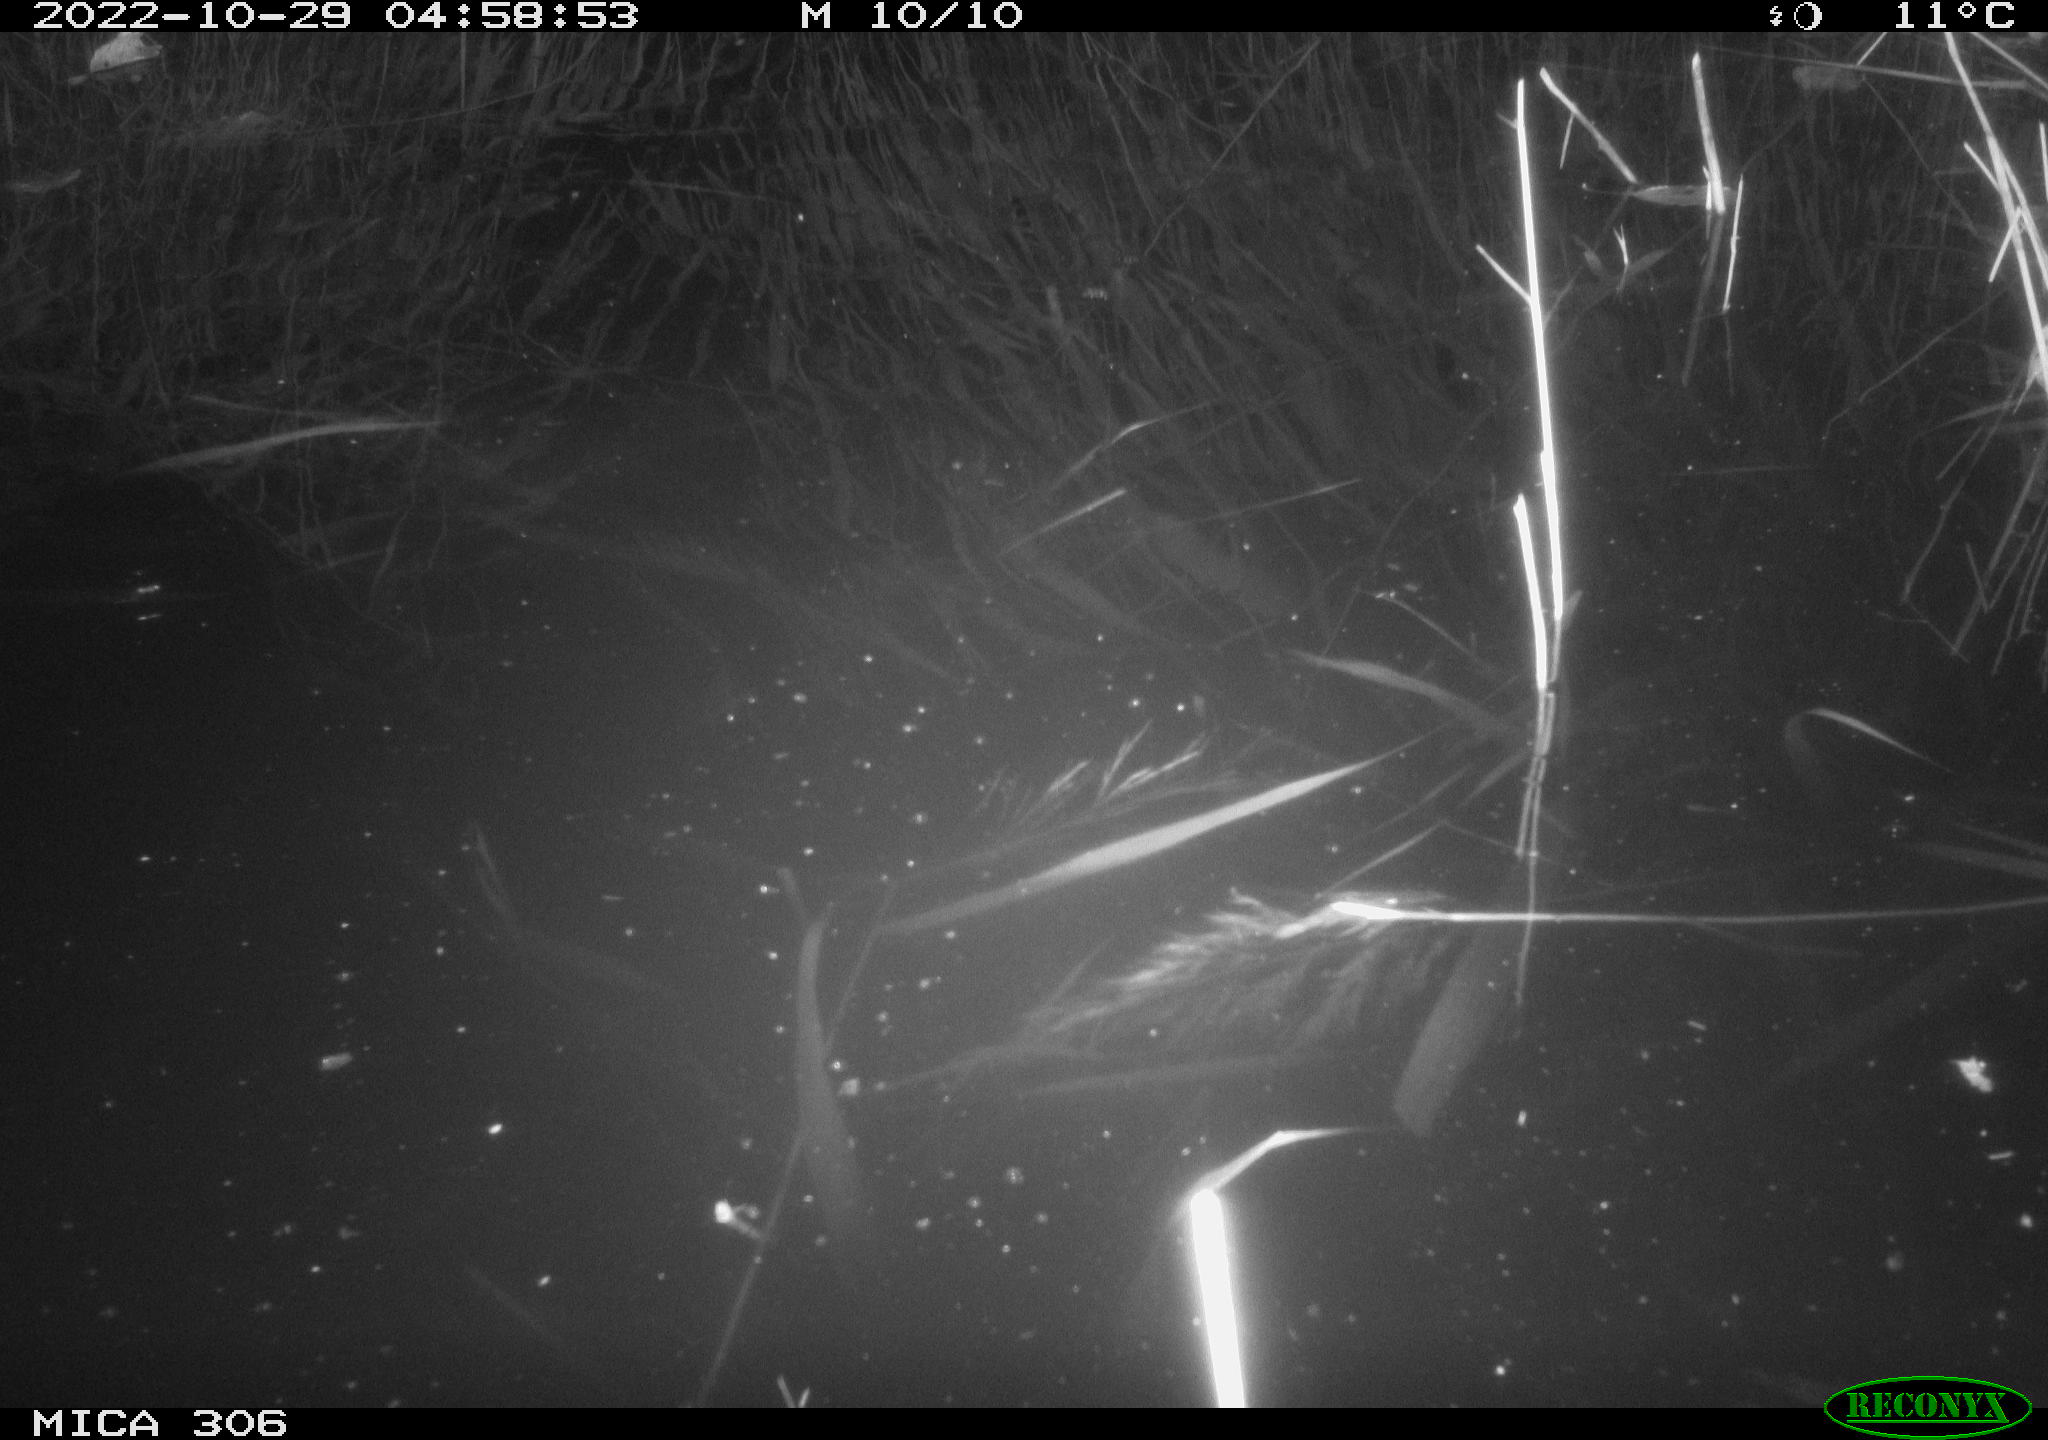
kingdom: Animalia
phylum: Chordata
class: Mammalia
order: Rodentia
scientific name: Rodentia
